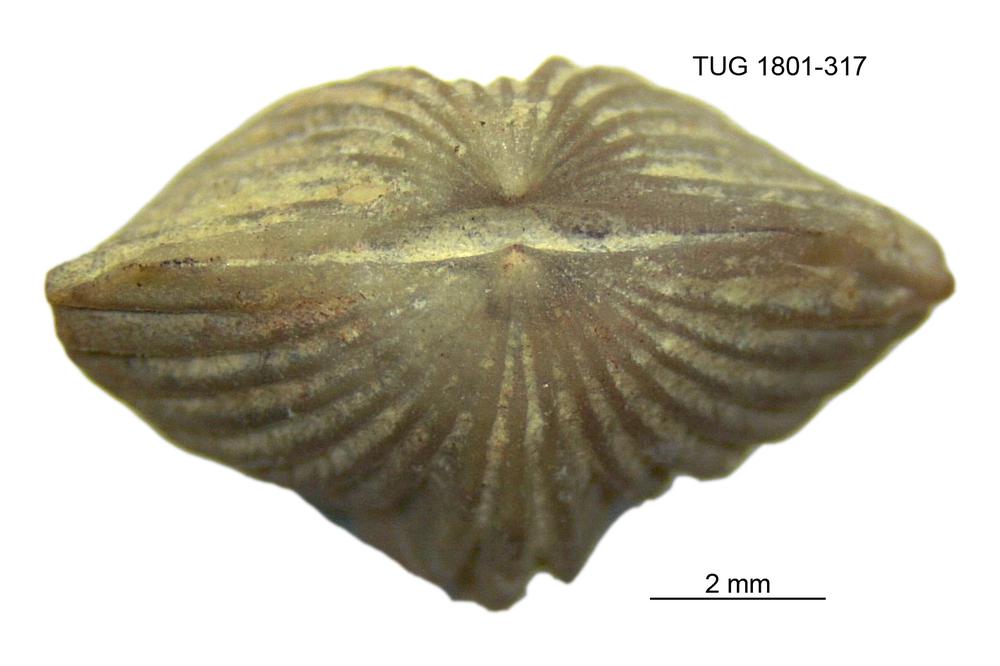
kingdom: Animalia
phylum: Brachiopoda
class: Rhynchonellata
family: Plectorthidae
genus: Platystrophia
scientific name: Platystrophia dentata
